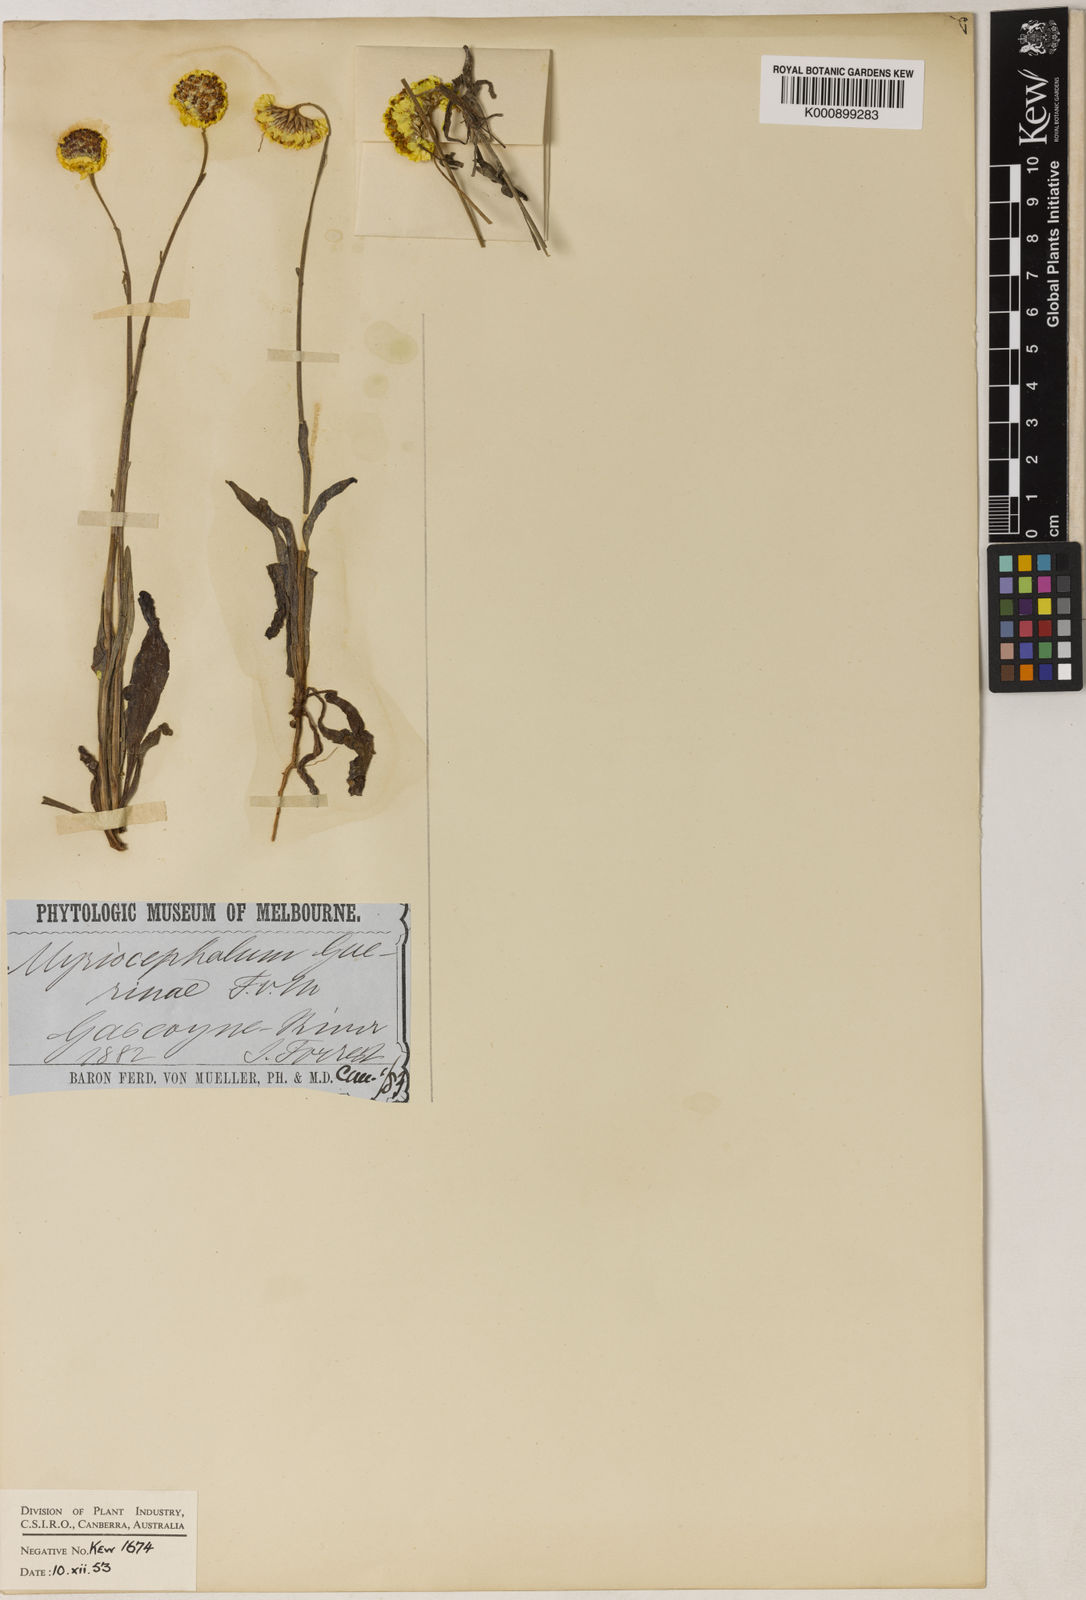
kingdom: Plantae
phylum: Tracheophyta
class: Magnoliopsida
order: Asterales
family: Asteraceae
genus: Myriocephalus
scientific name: Myriocephalus guerinae
